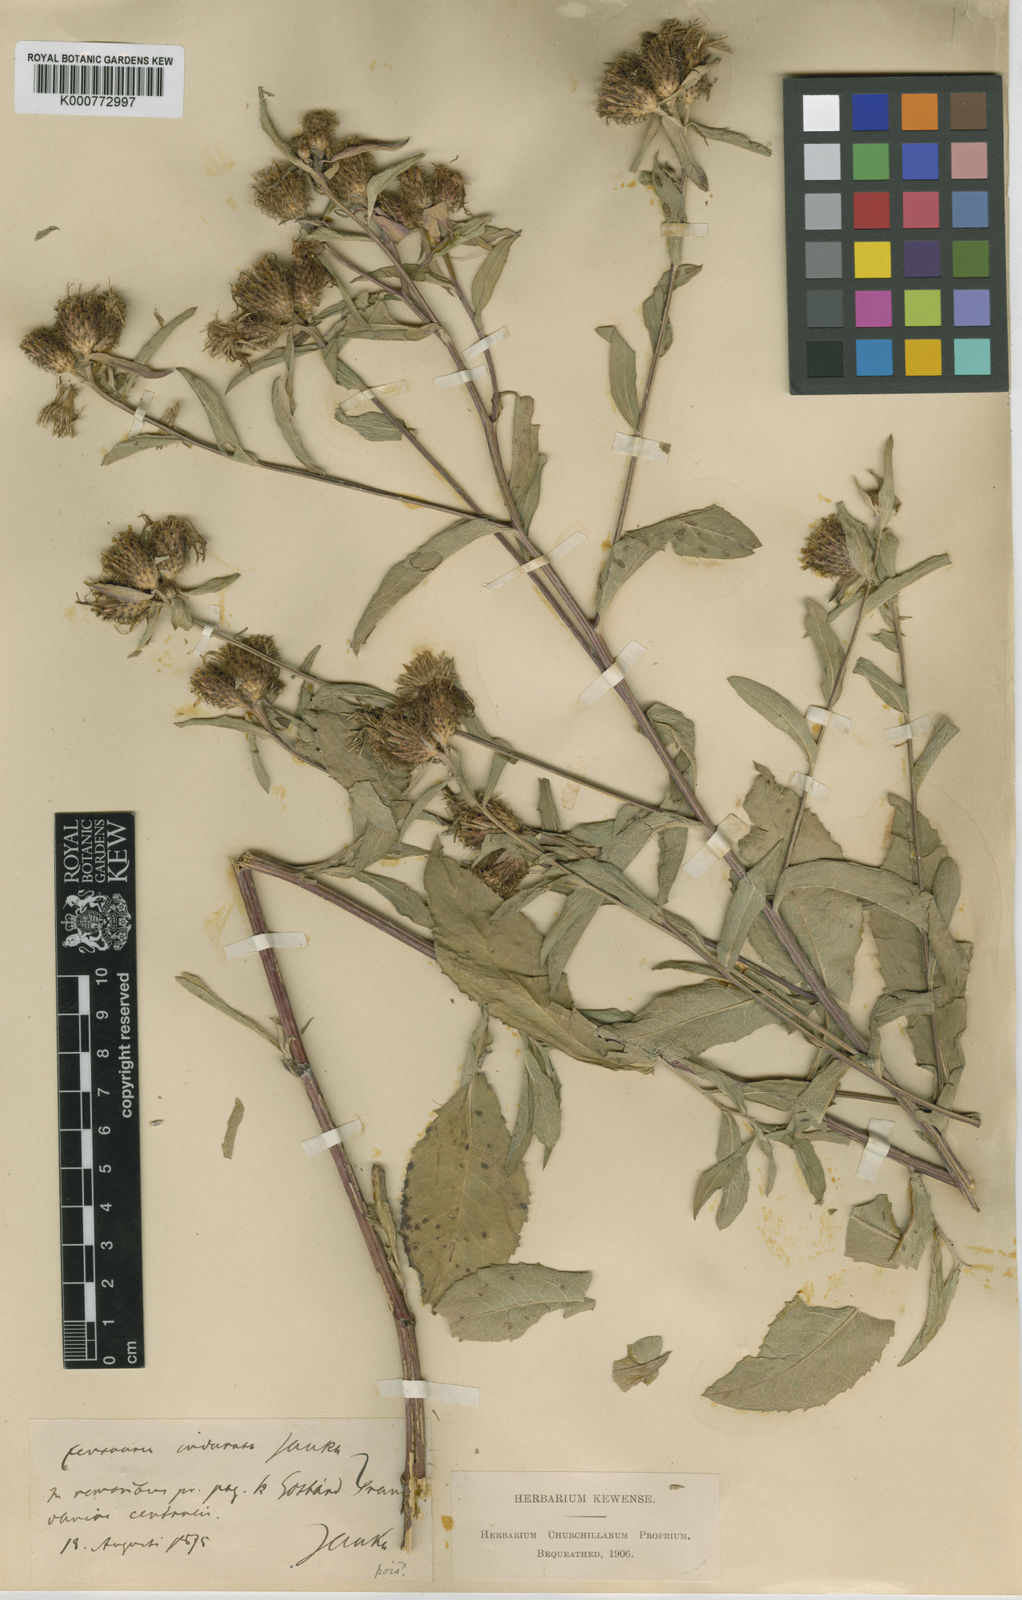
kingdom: Plantae
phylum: Tracheophyta
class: Magnoliopsida
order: Asterales
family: Asteraceae
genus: Centaurea
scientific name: Centaurea indurata
